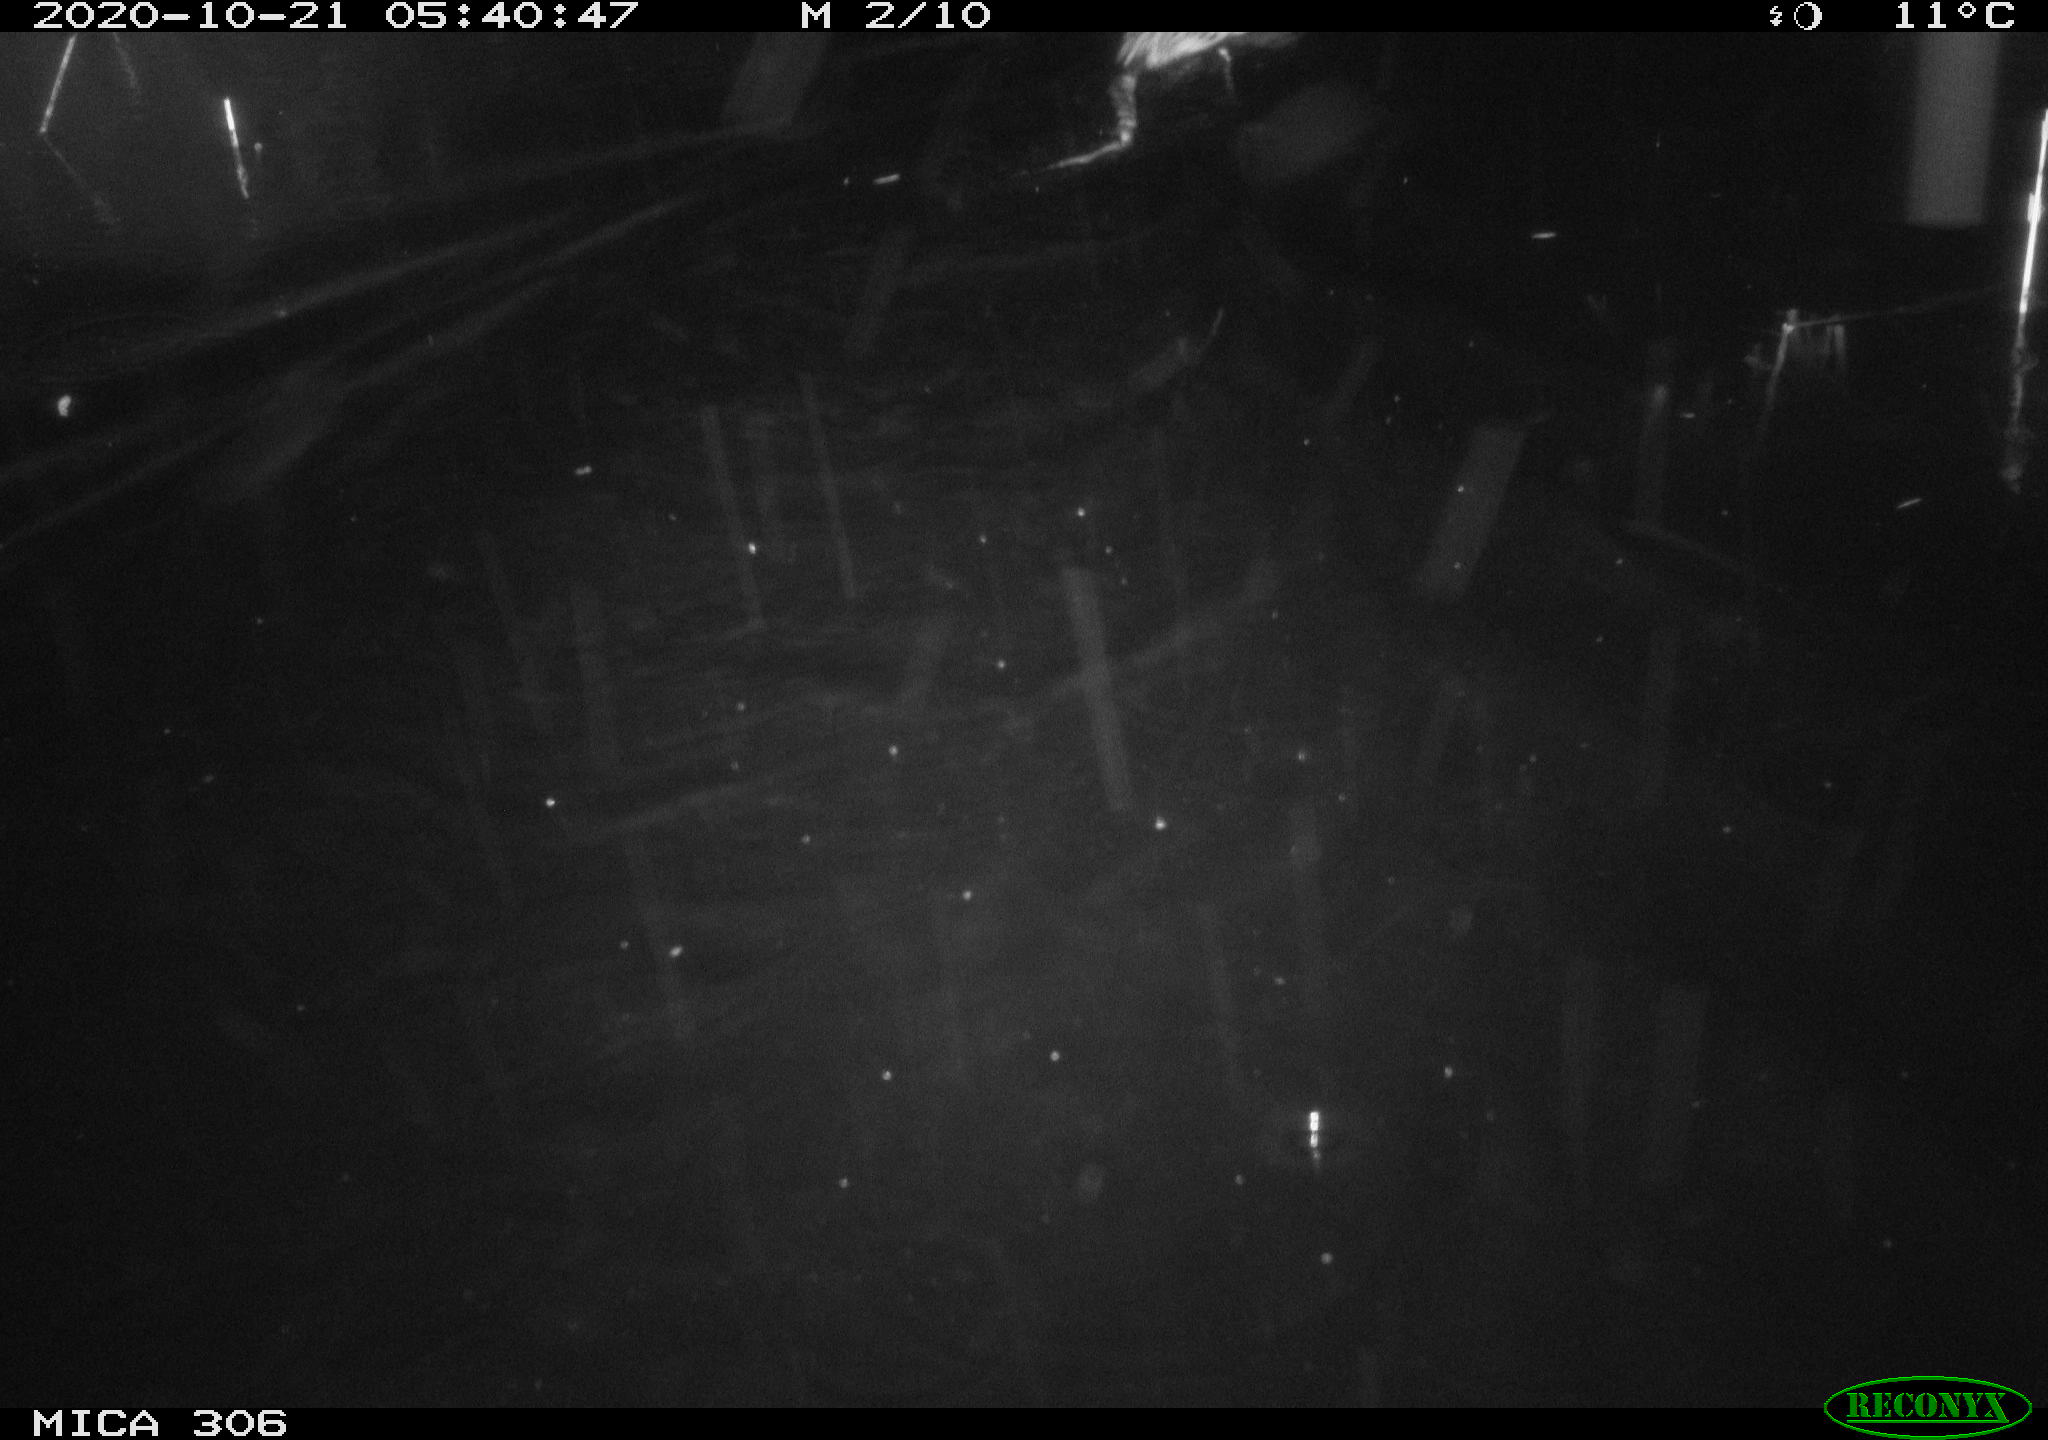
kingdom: Animalia
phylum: Chordata
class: Mammalia
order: Rodentia
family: Cricetidae
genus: Ondatra
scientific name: Ondatra zibethicus
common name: Muskrat
